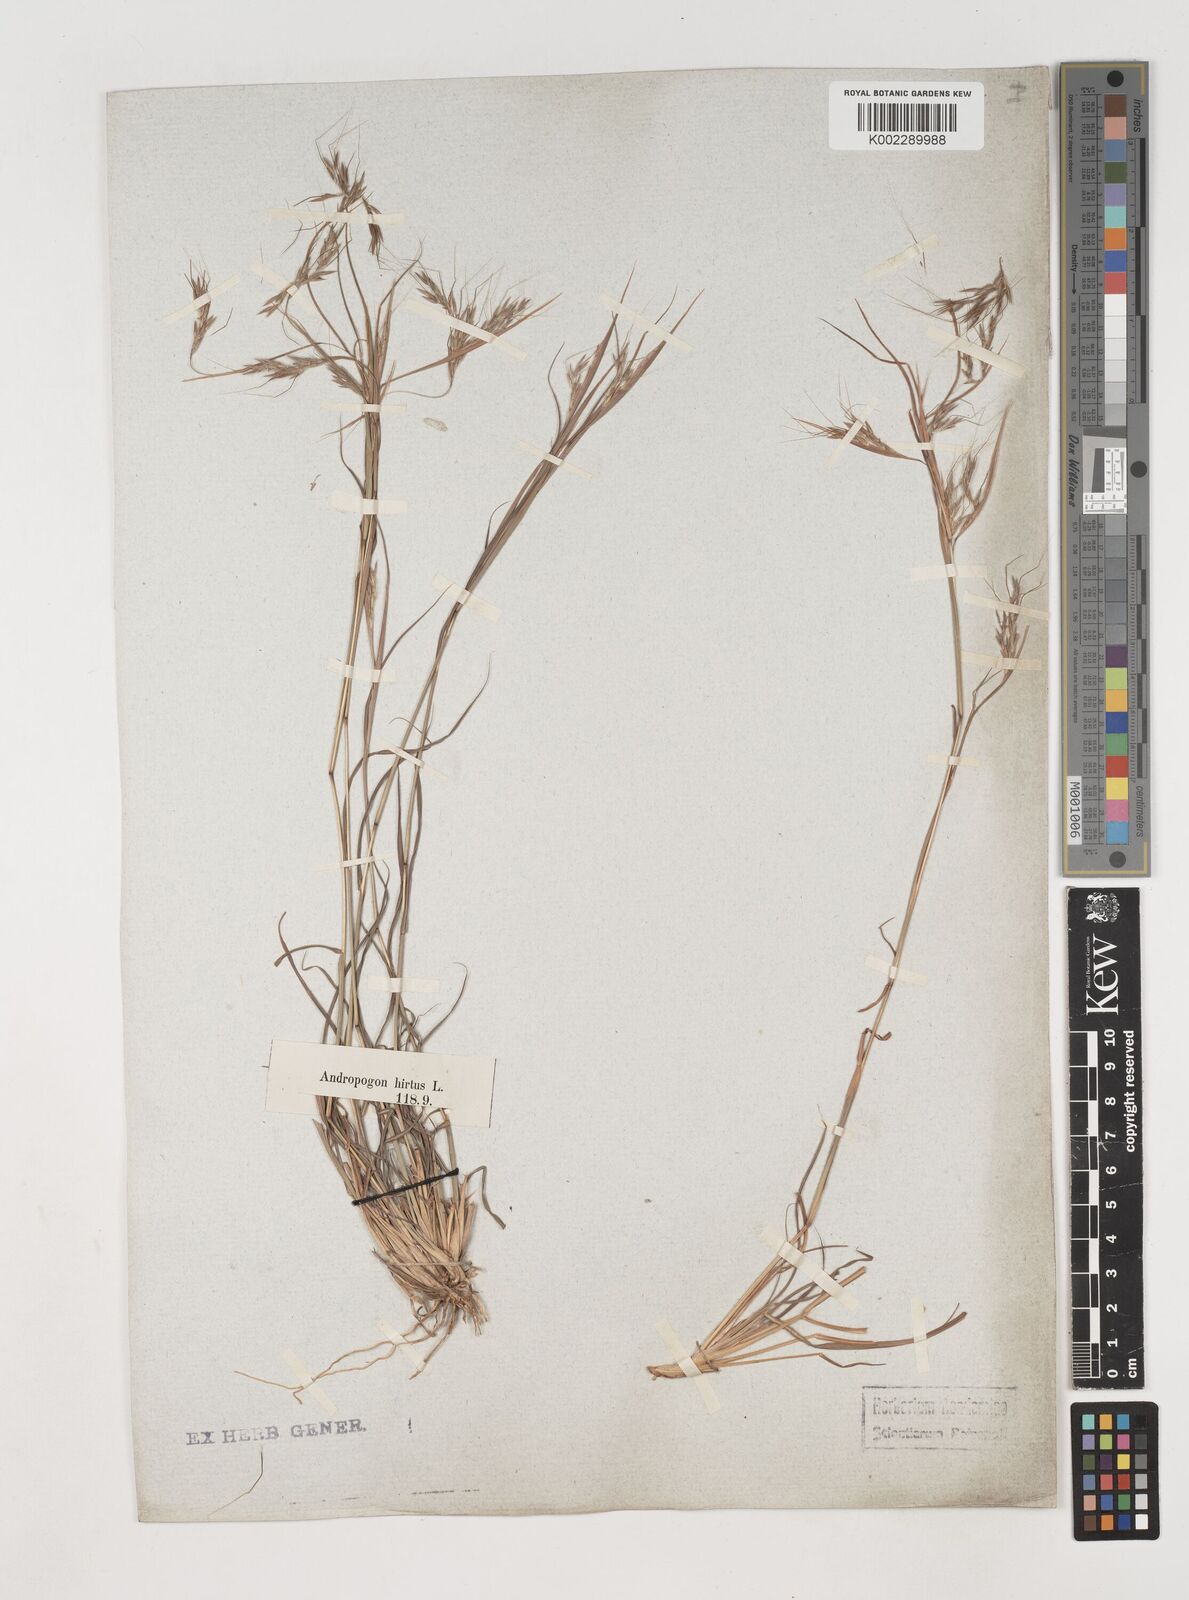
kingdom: Plantae
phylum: Tracheophyta
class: Liliopsida
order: Poales
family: Poaceae
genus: Hyparrhenia
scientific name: Hyparrhenia hirta
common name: Thatching grass
